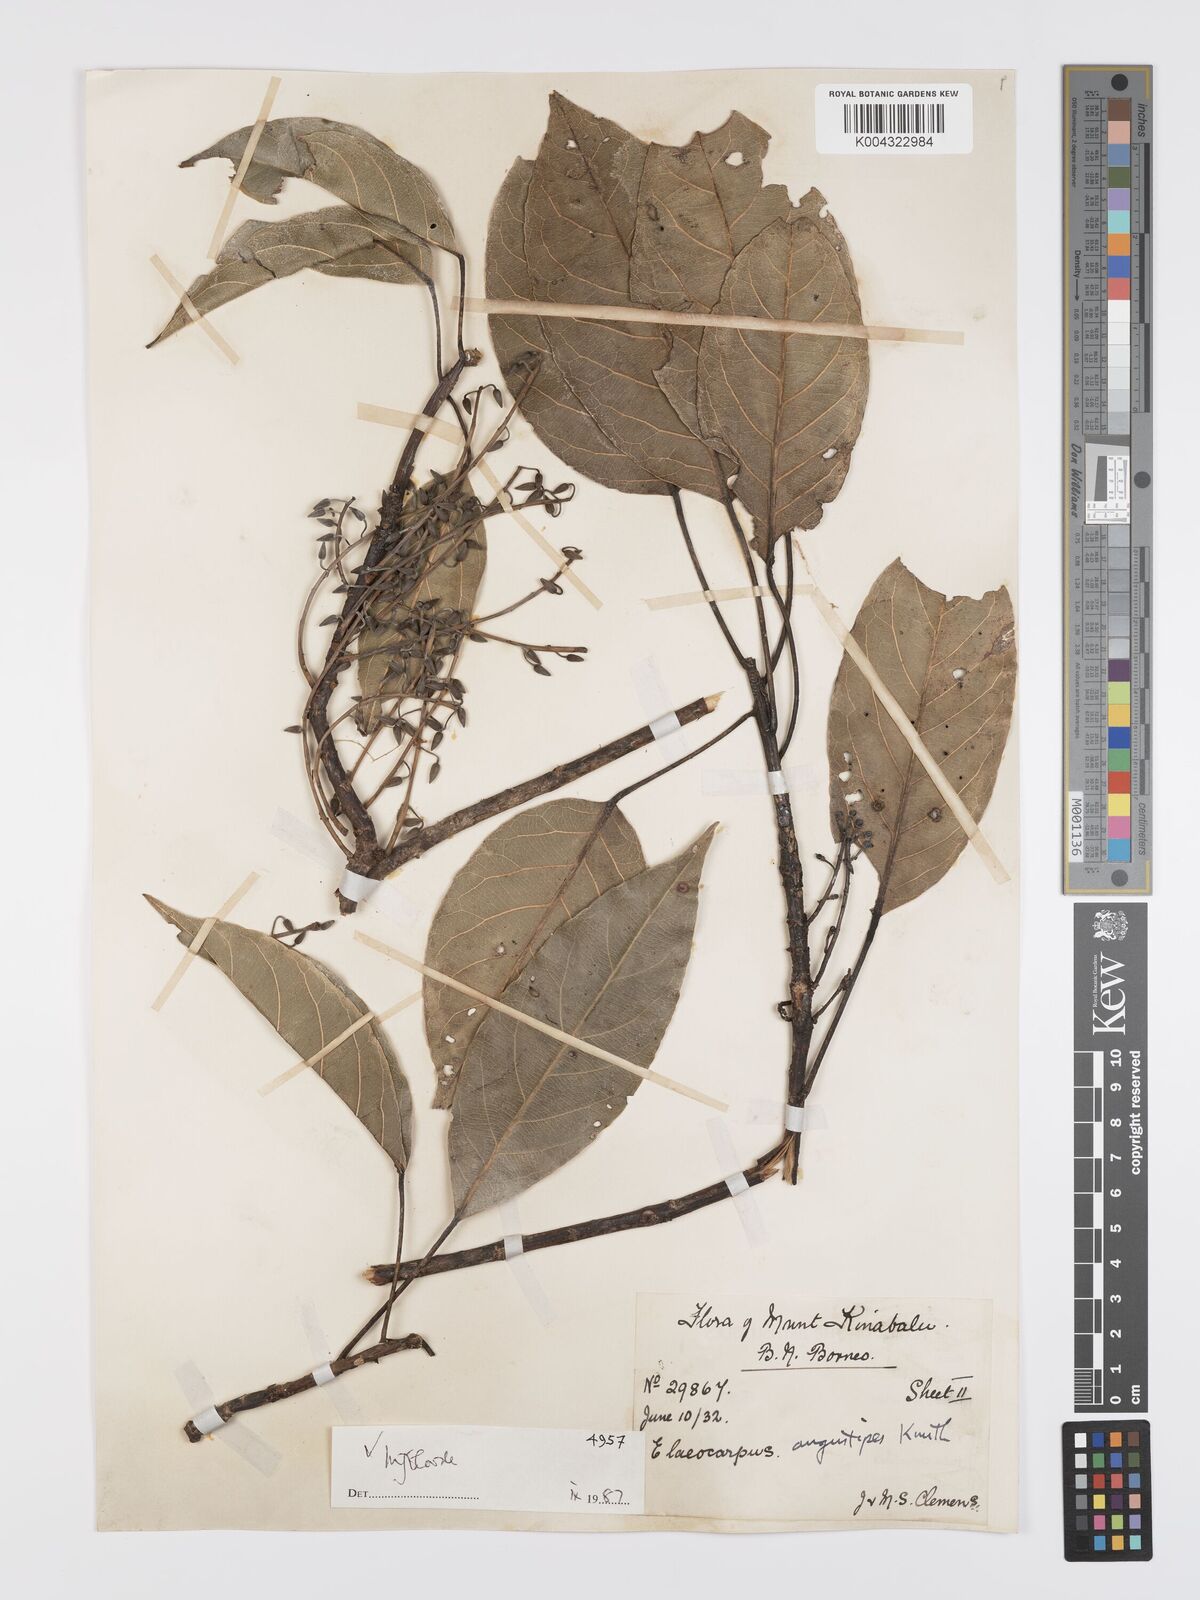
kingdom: Plantae
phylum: Tracheophyta
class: Magnoliopsida
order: Oxalidales
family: Elaeocarpaceae
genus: Elaeocarpus
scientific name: Elaeocarpus angustipes
